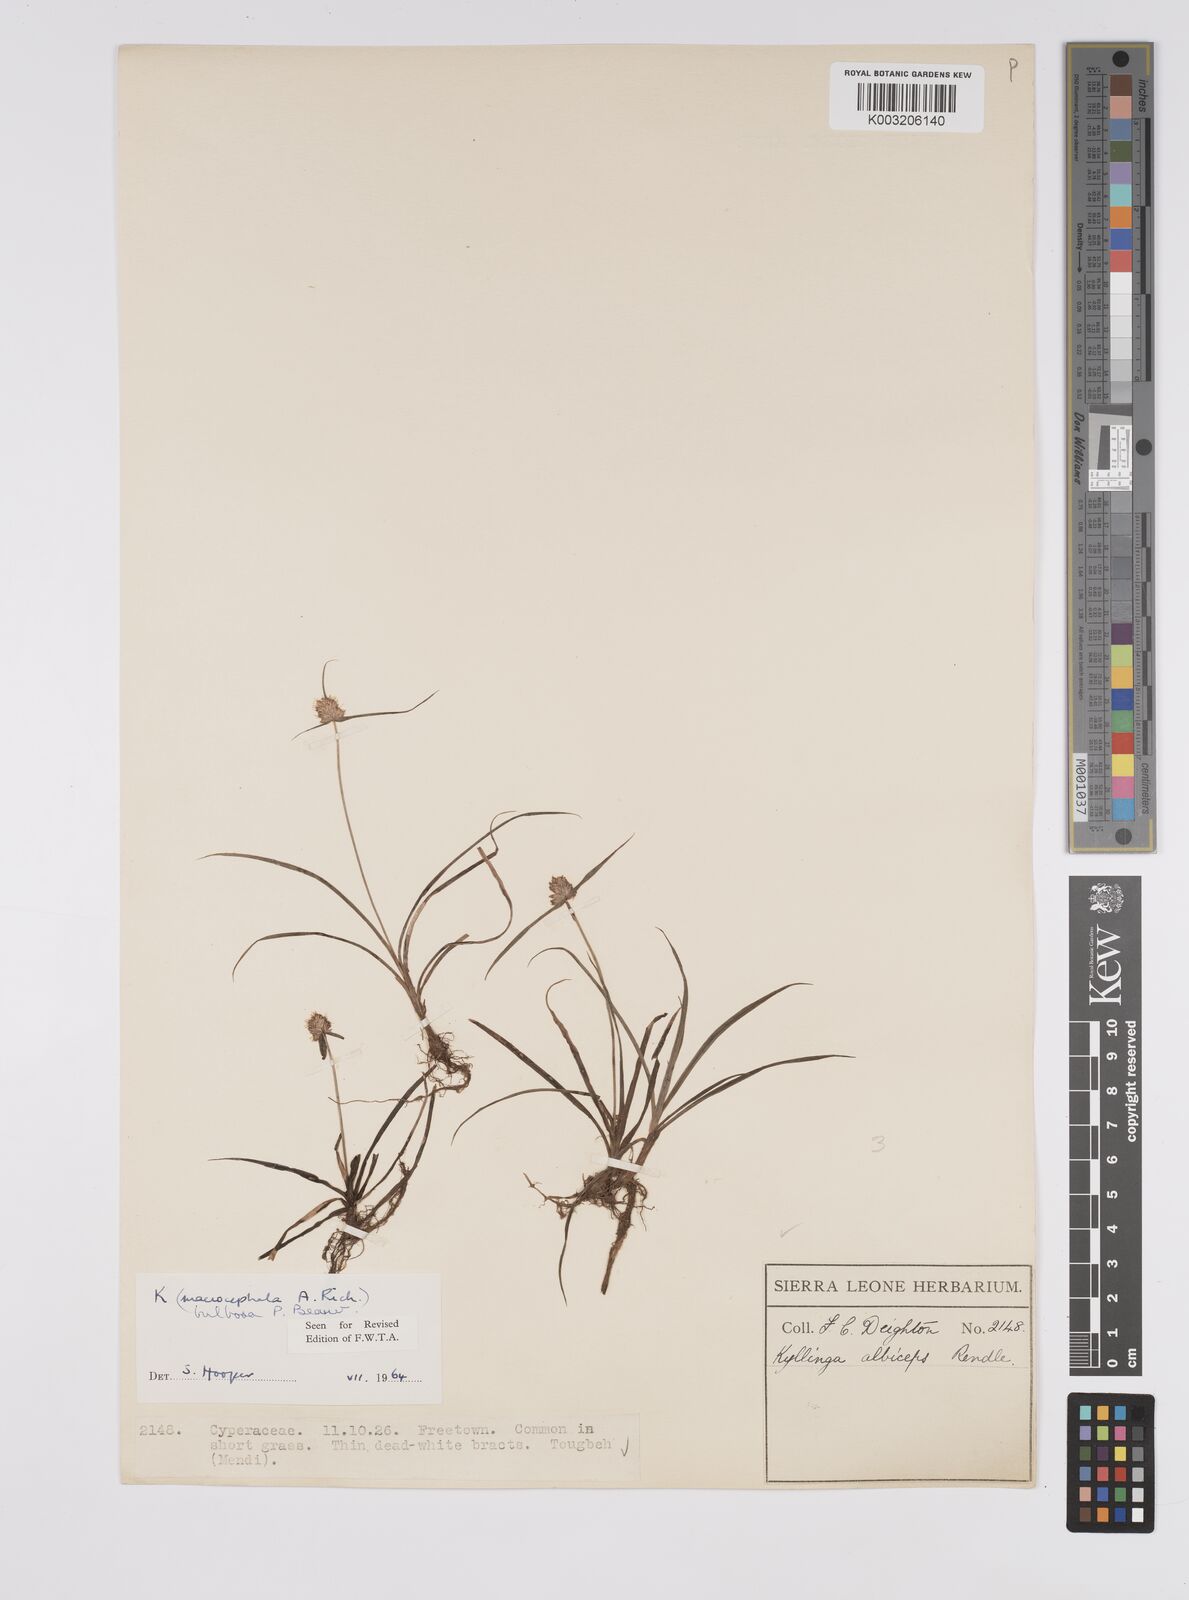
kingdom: Plantae
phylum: Tracheophyta
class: Liliopsida
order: Poales
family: Cyperaceae
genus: Cyperus
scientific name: Cyperus
